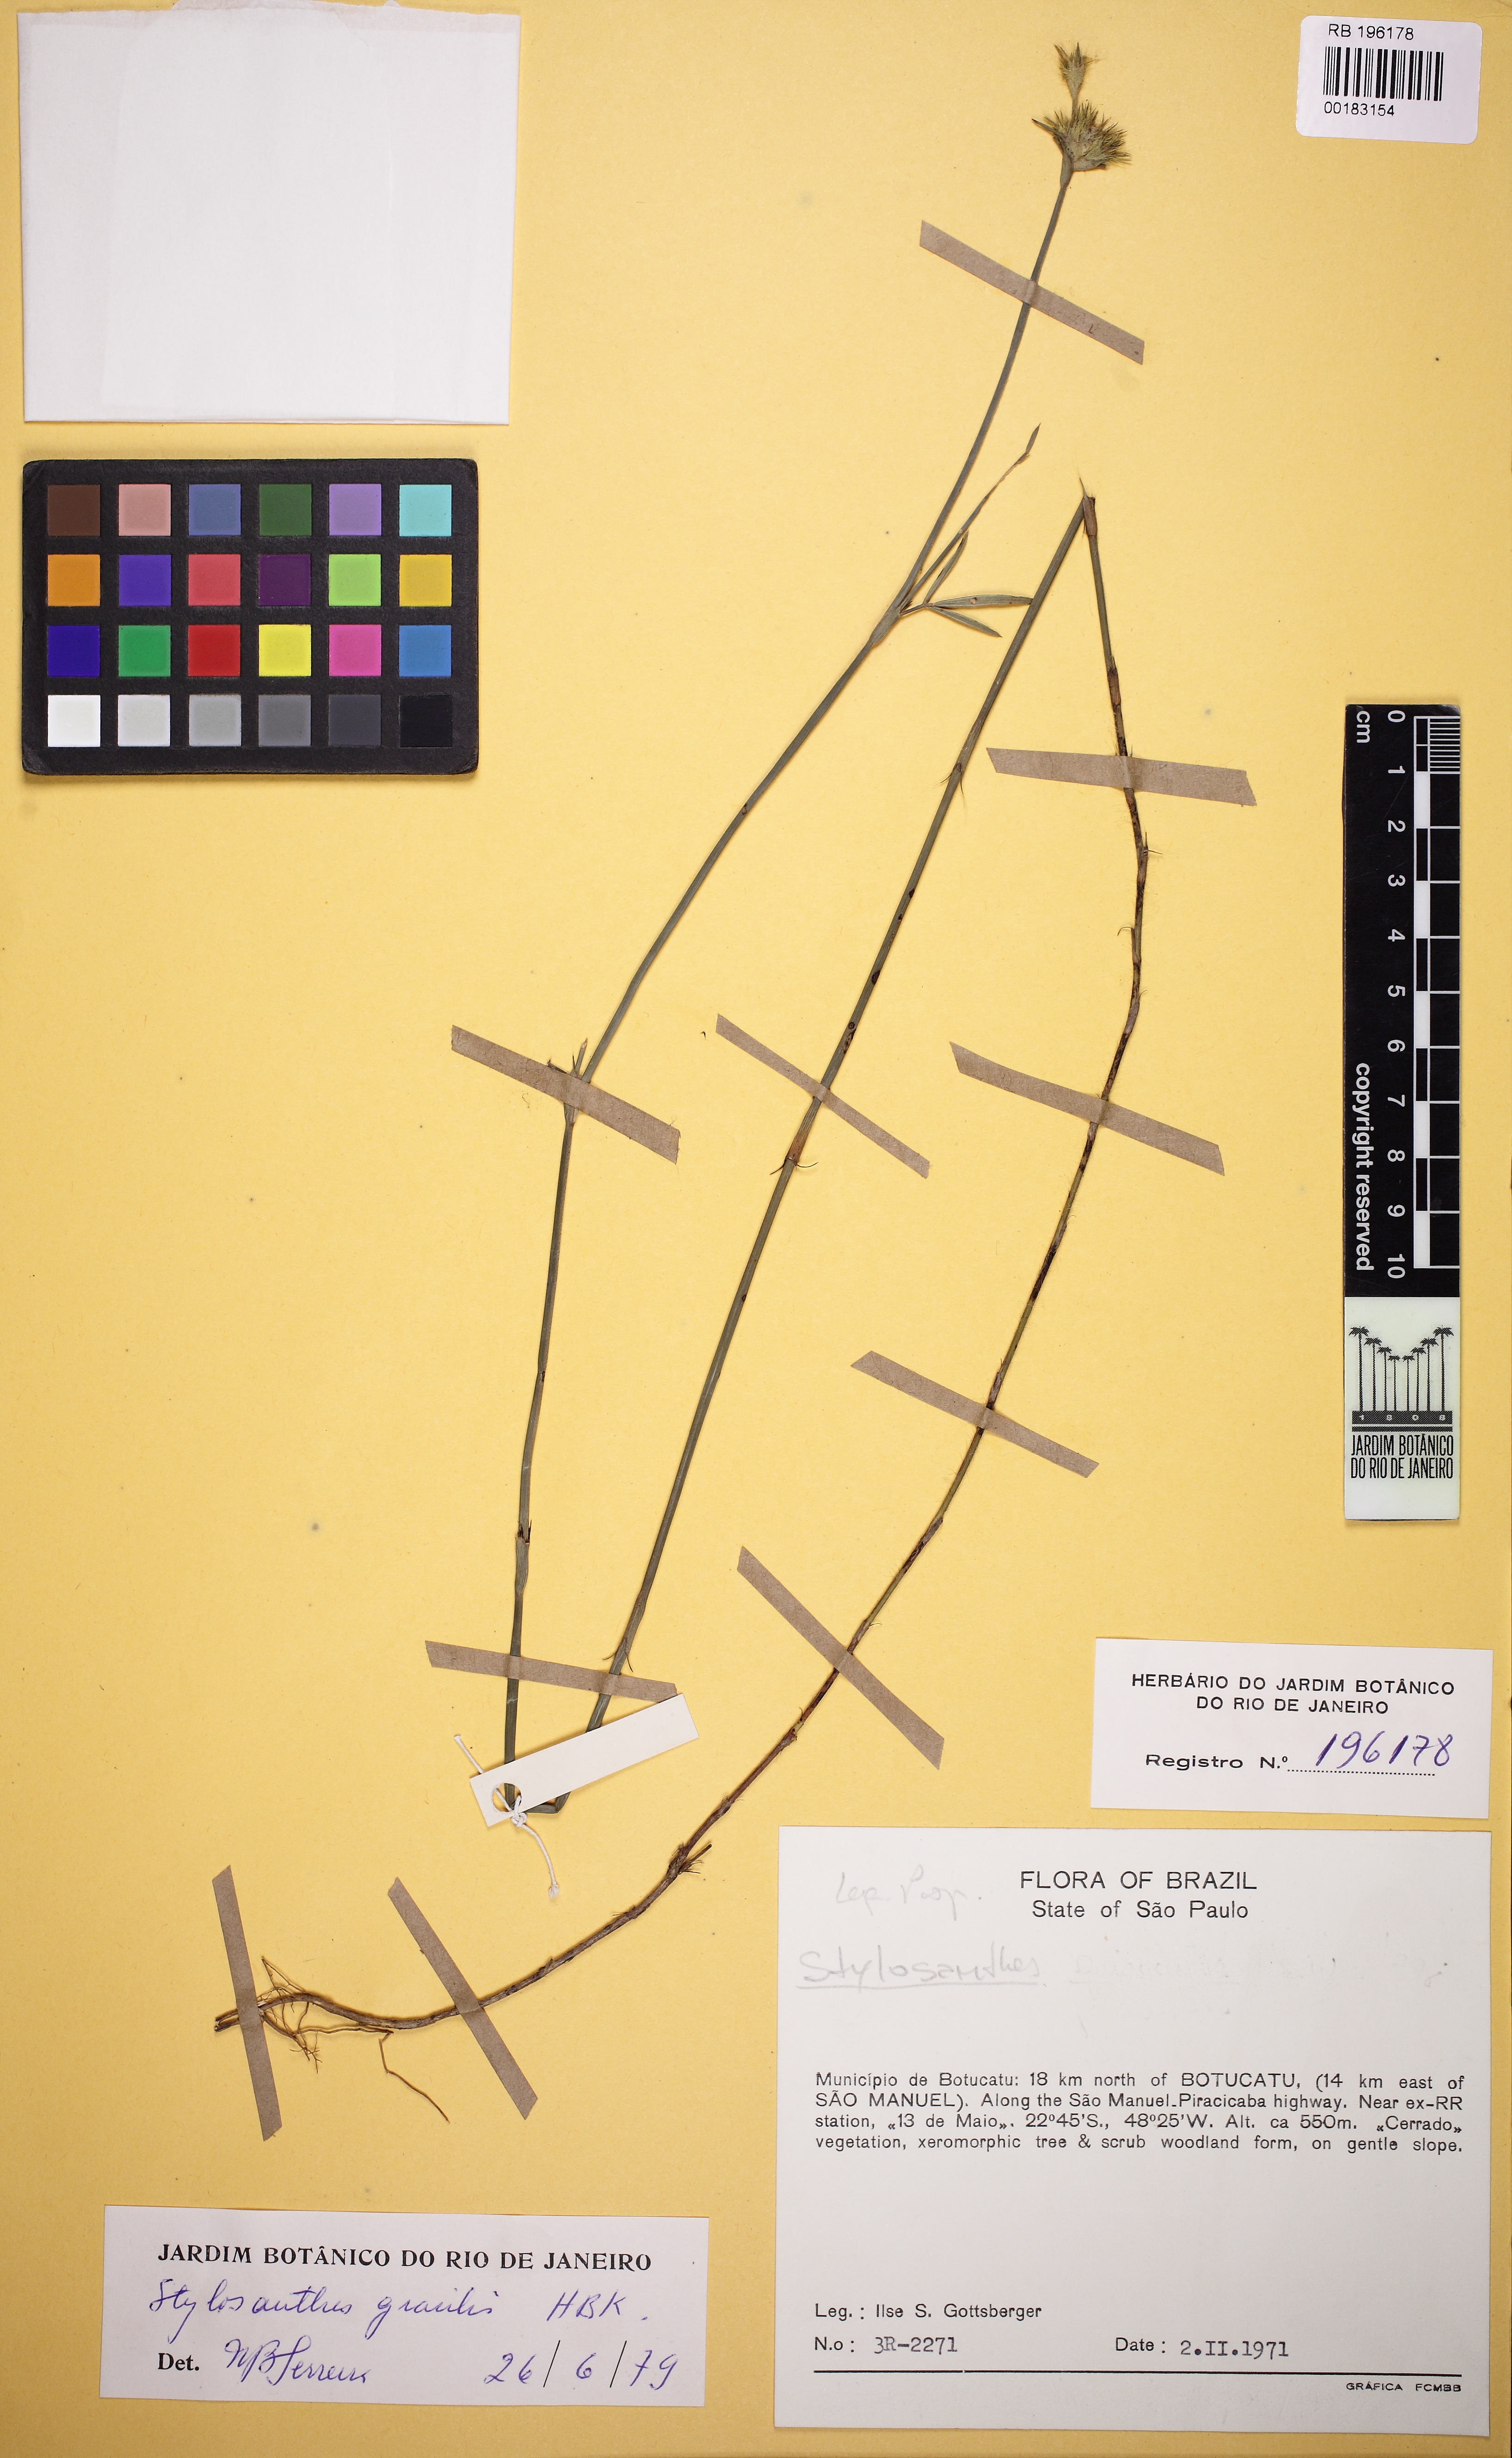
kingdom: Plantae
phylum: Tracheophyta
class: Magnoliopsida
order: Fabales
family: Fabaceae
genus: Stylosanthes
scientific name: Stylosanthes guianensis
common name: Pencil flower
